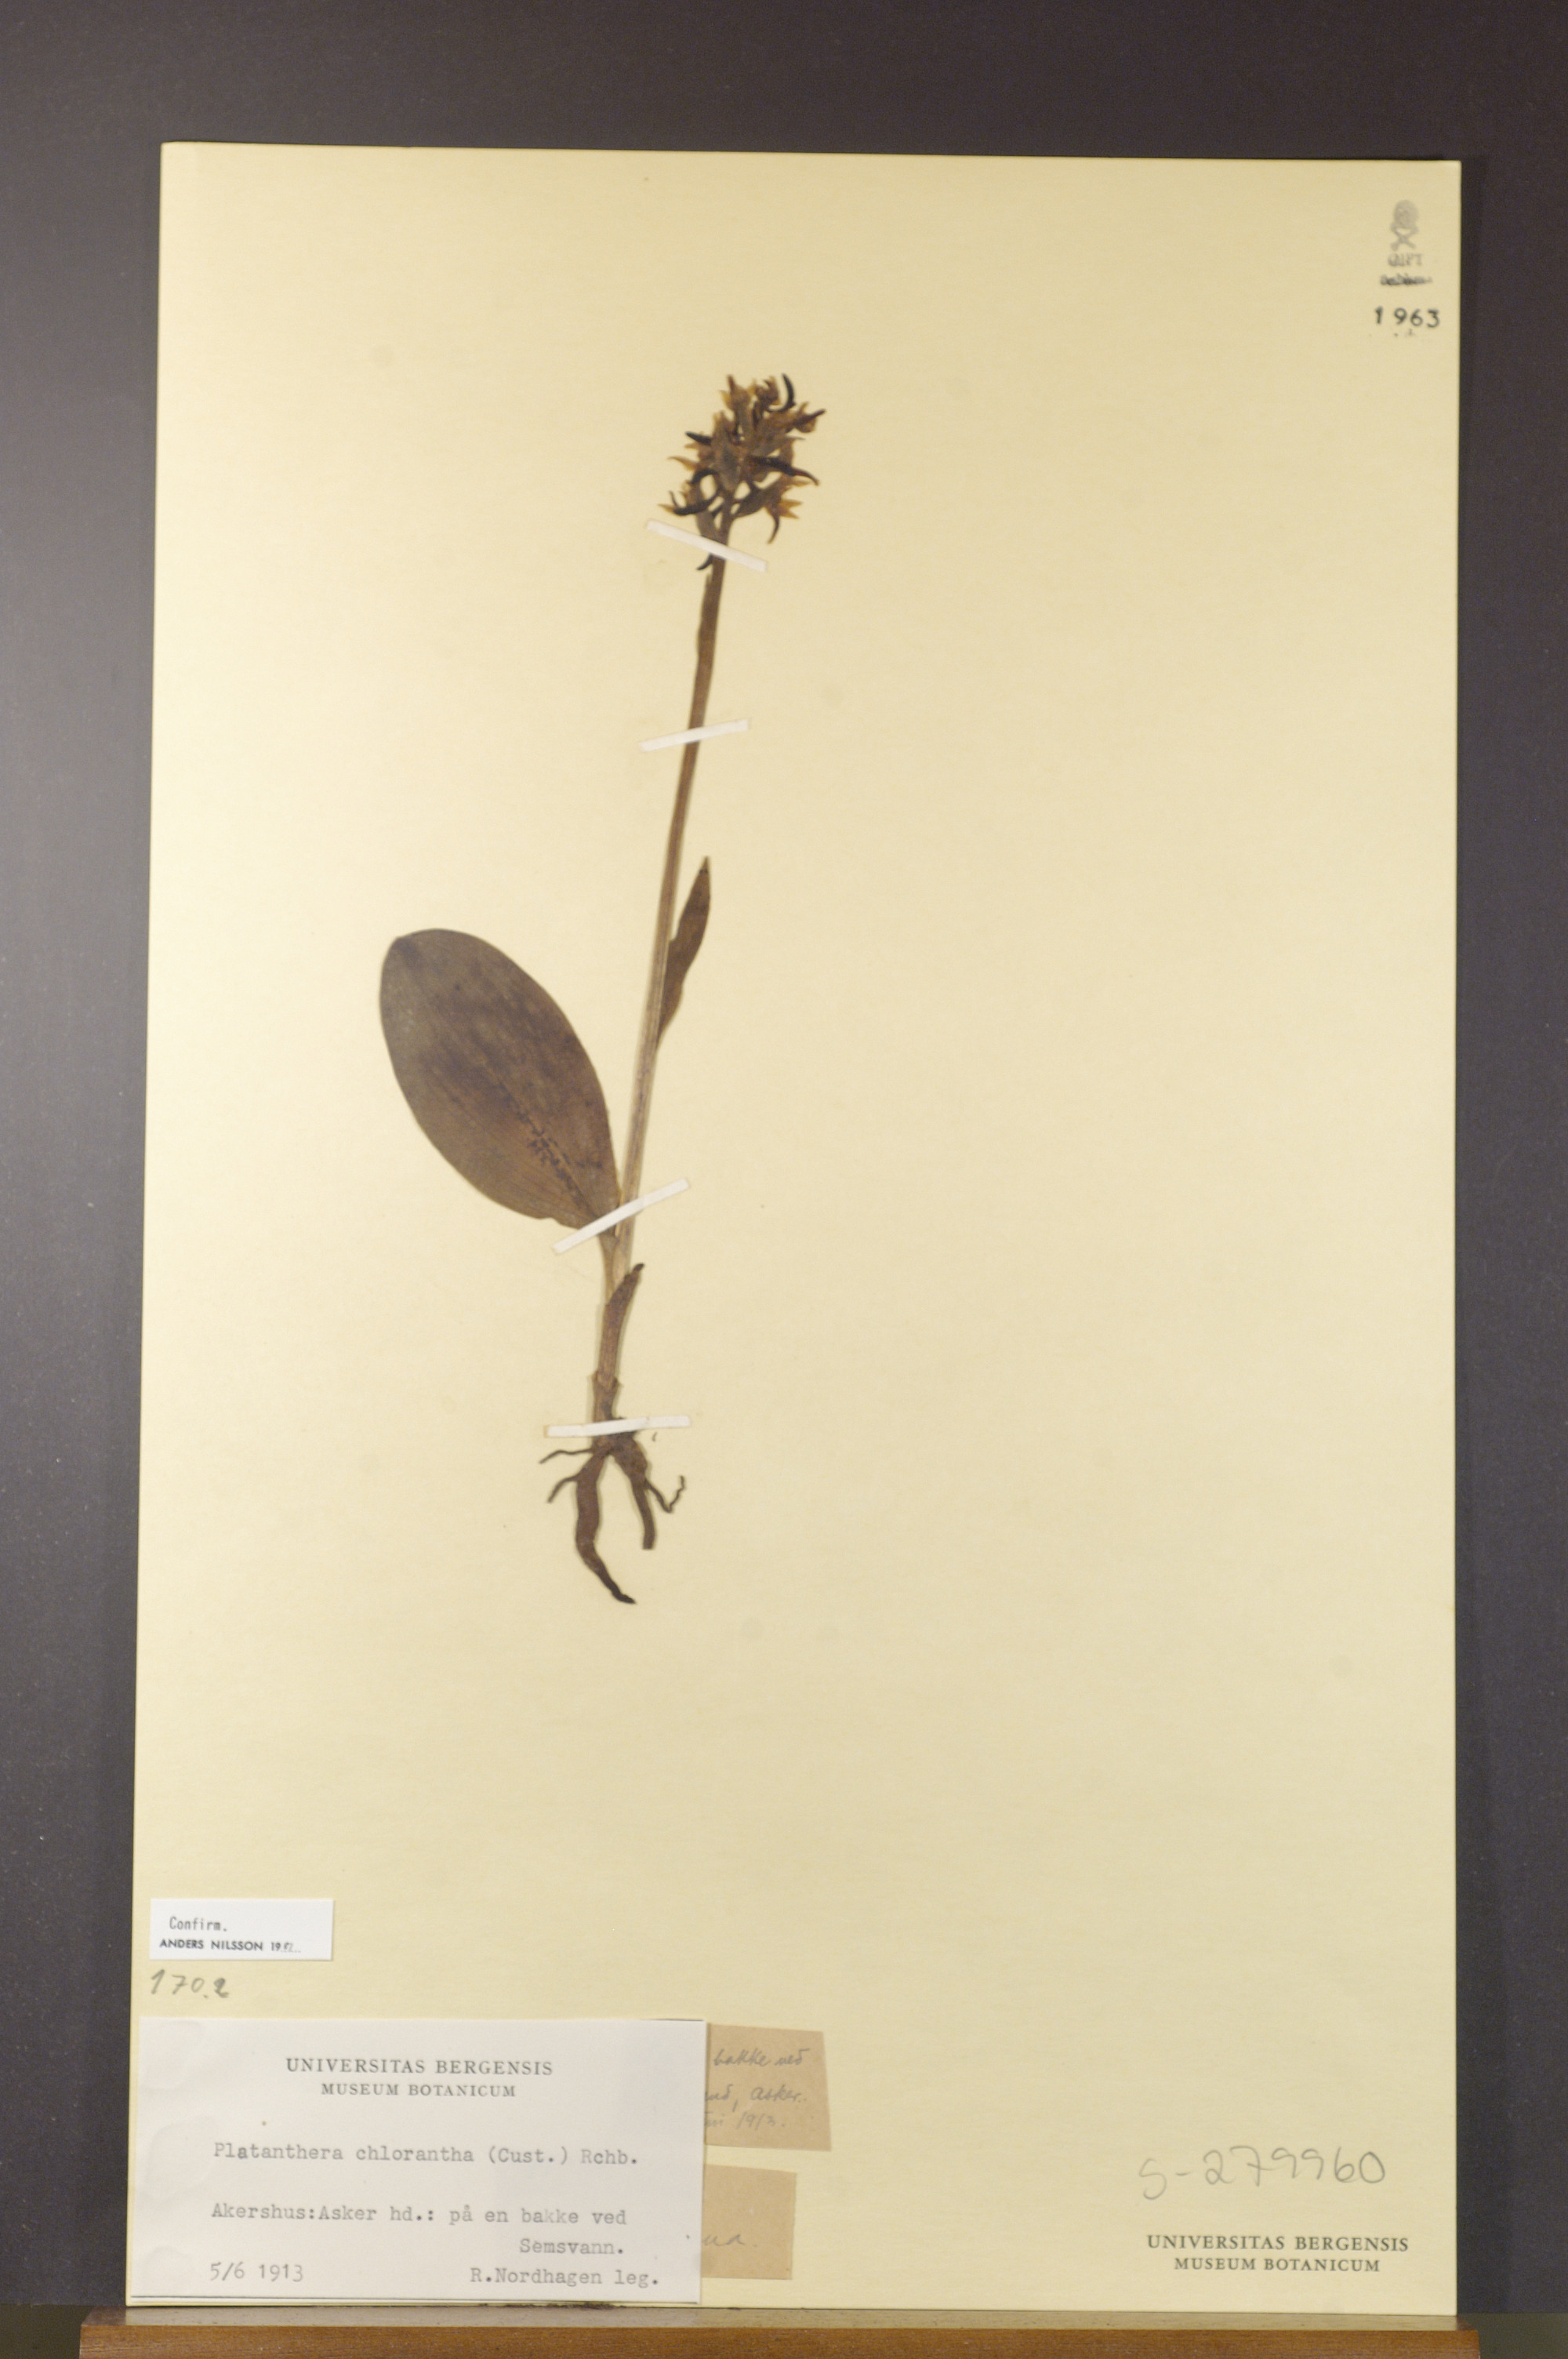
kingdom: Plantae
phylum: Tracheophyta
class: Liliopsida
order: Asparagales
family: Orchidaceae
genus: Platanthera
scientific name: Platanthera chlorantha
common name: Greater butterfly-orchid
